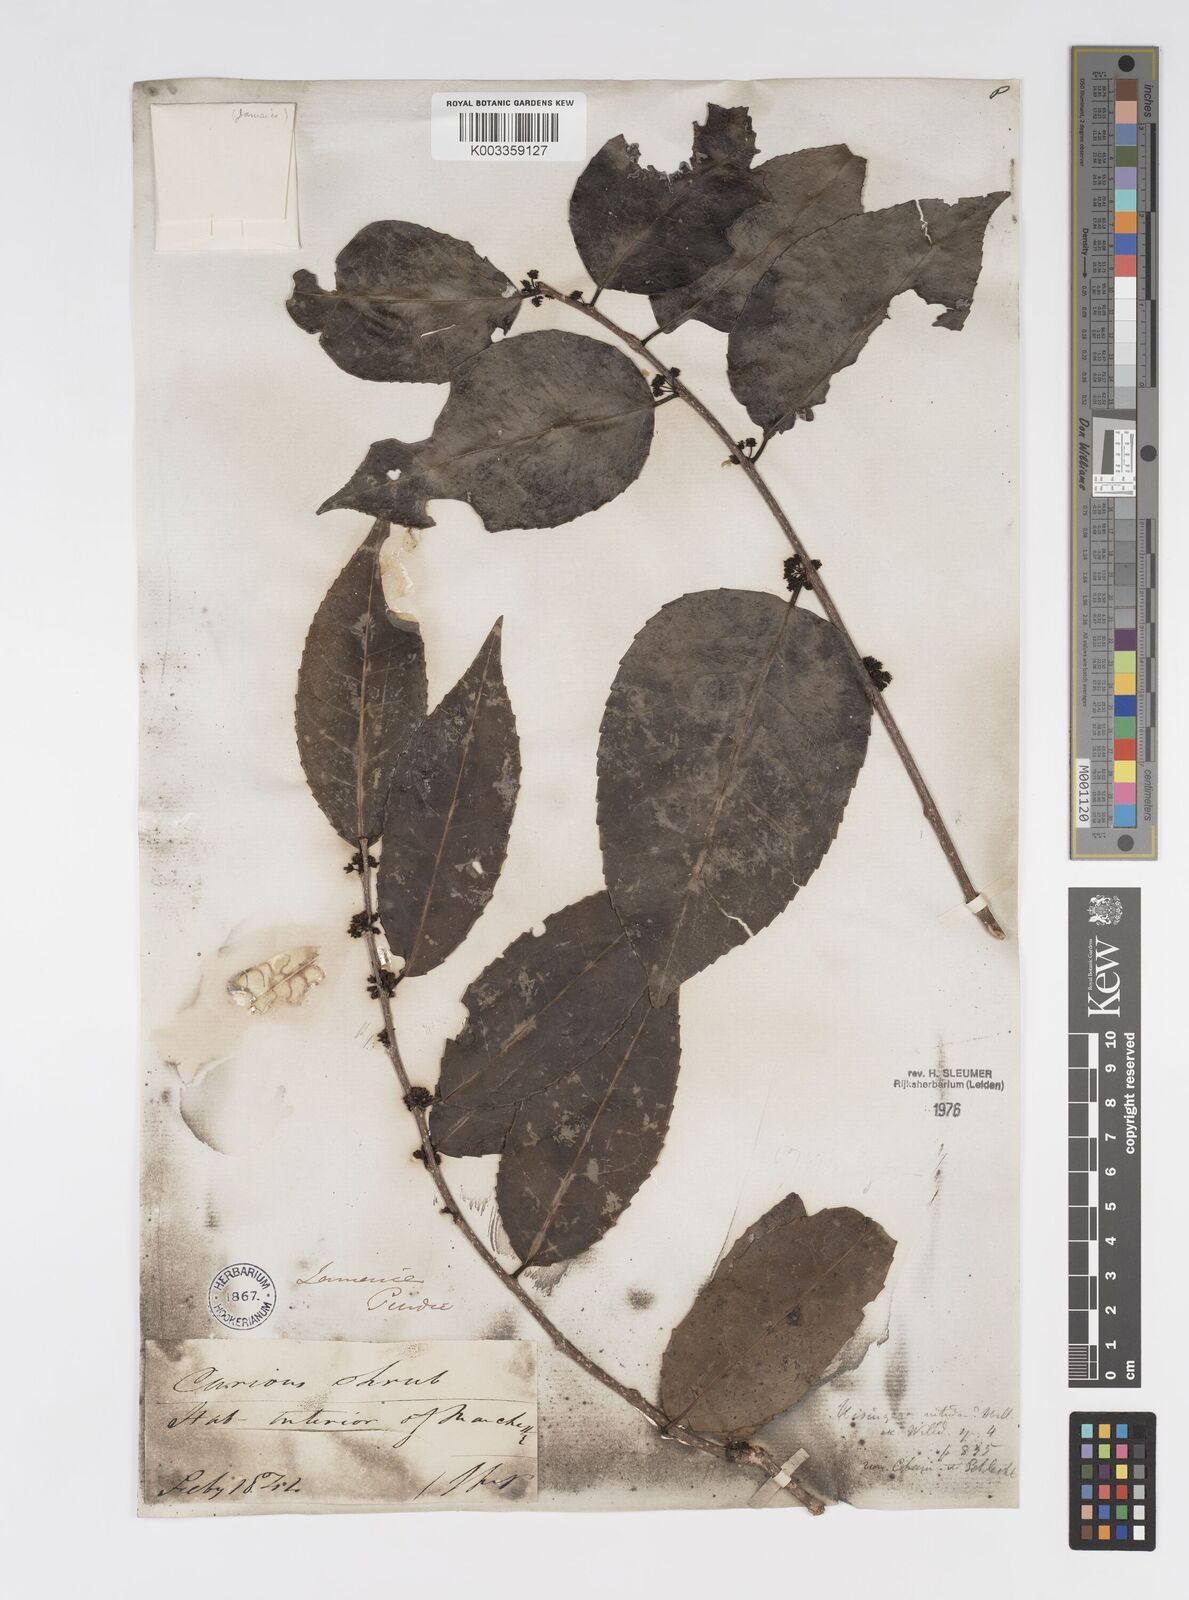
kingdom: Plantae
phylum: Tracheophyta
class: Magnoliopsida
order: Malpighiales
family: Salicaceae
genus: Xylosma
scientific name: Xylosma nitida
